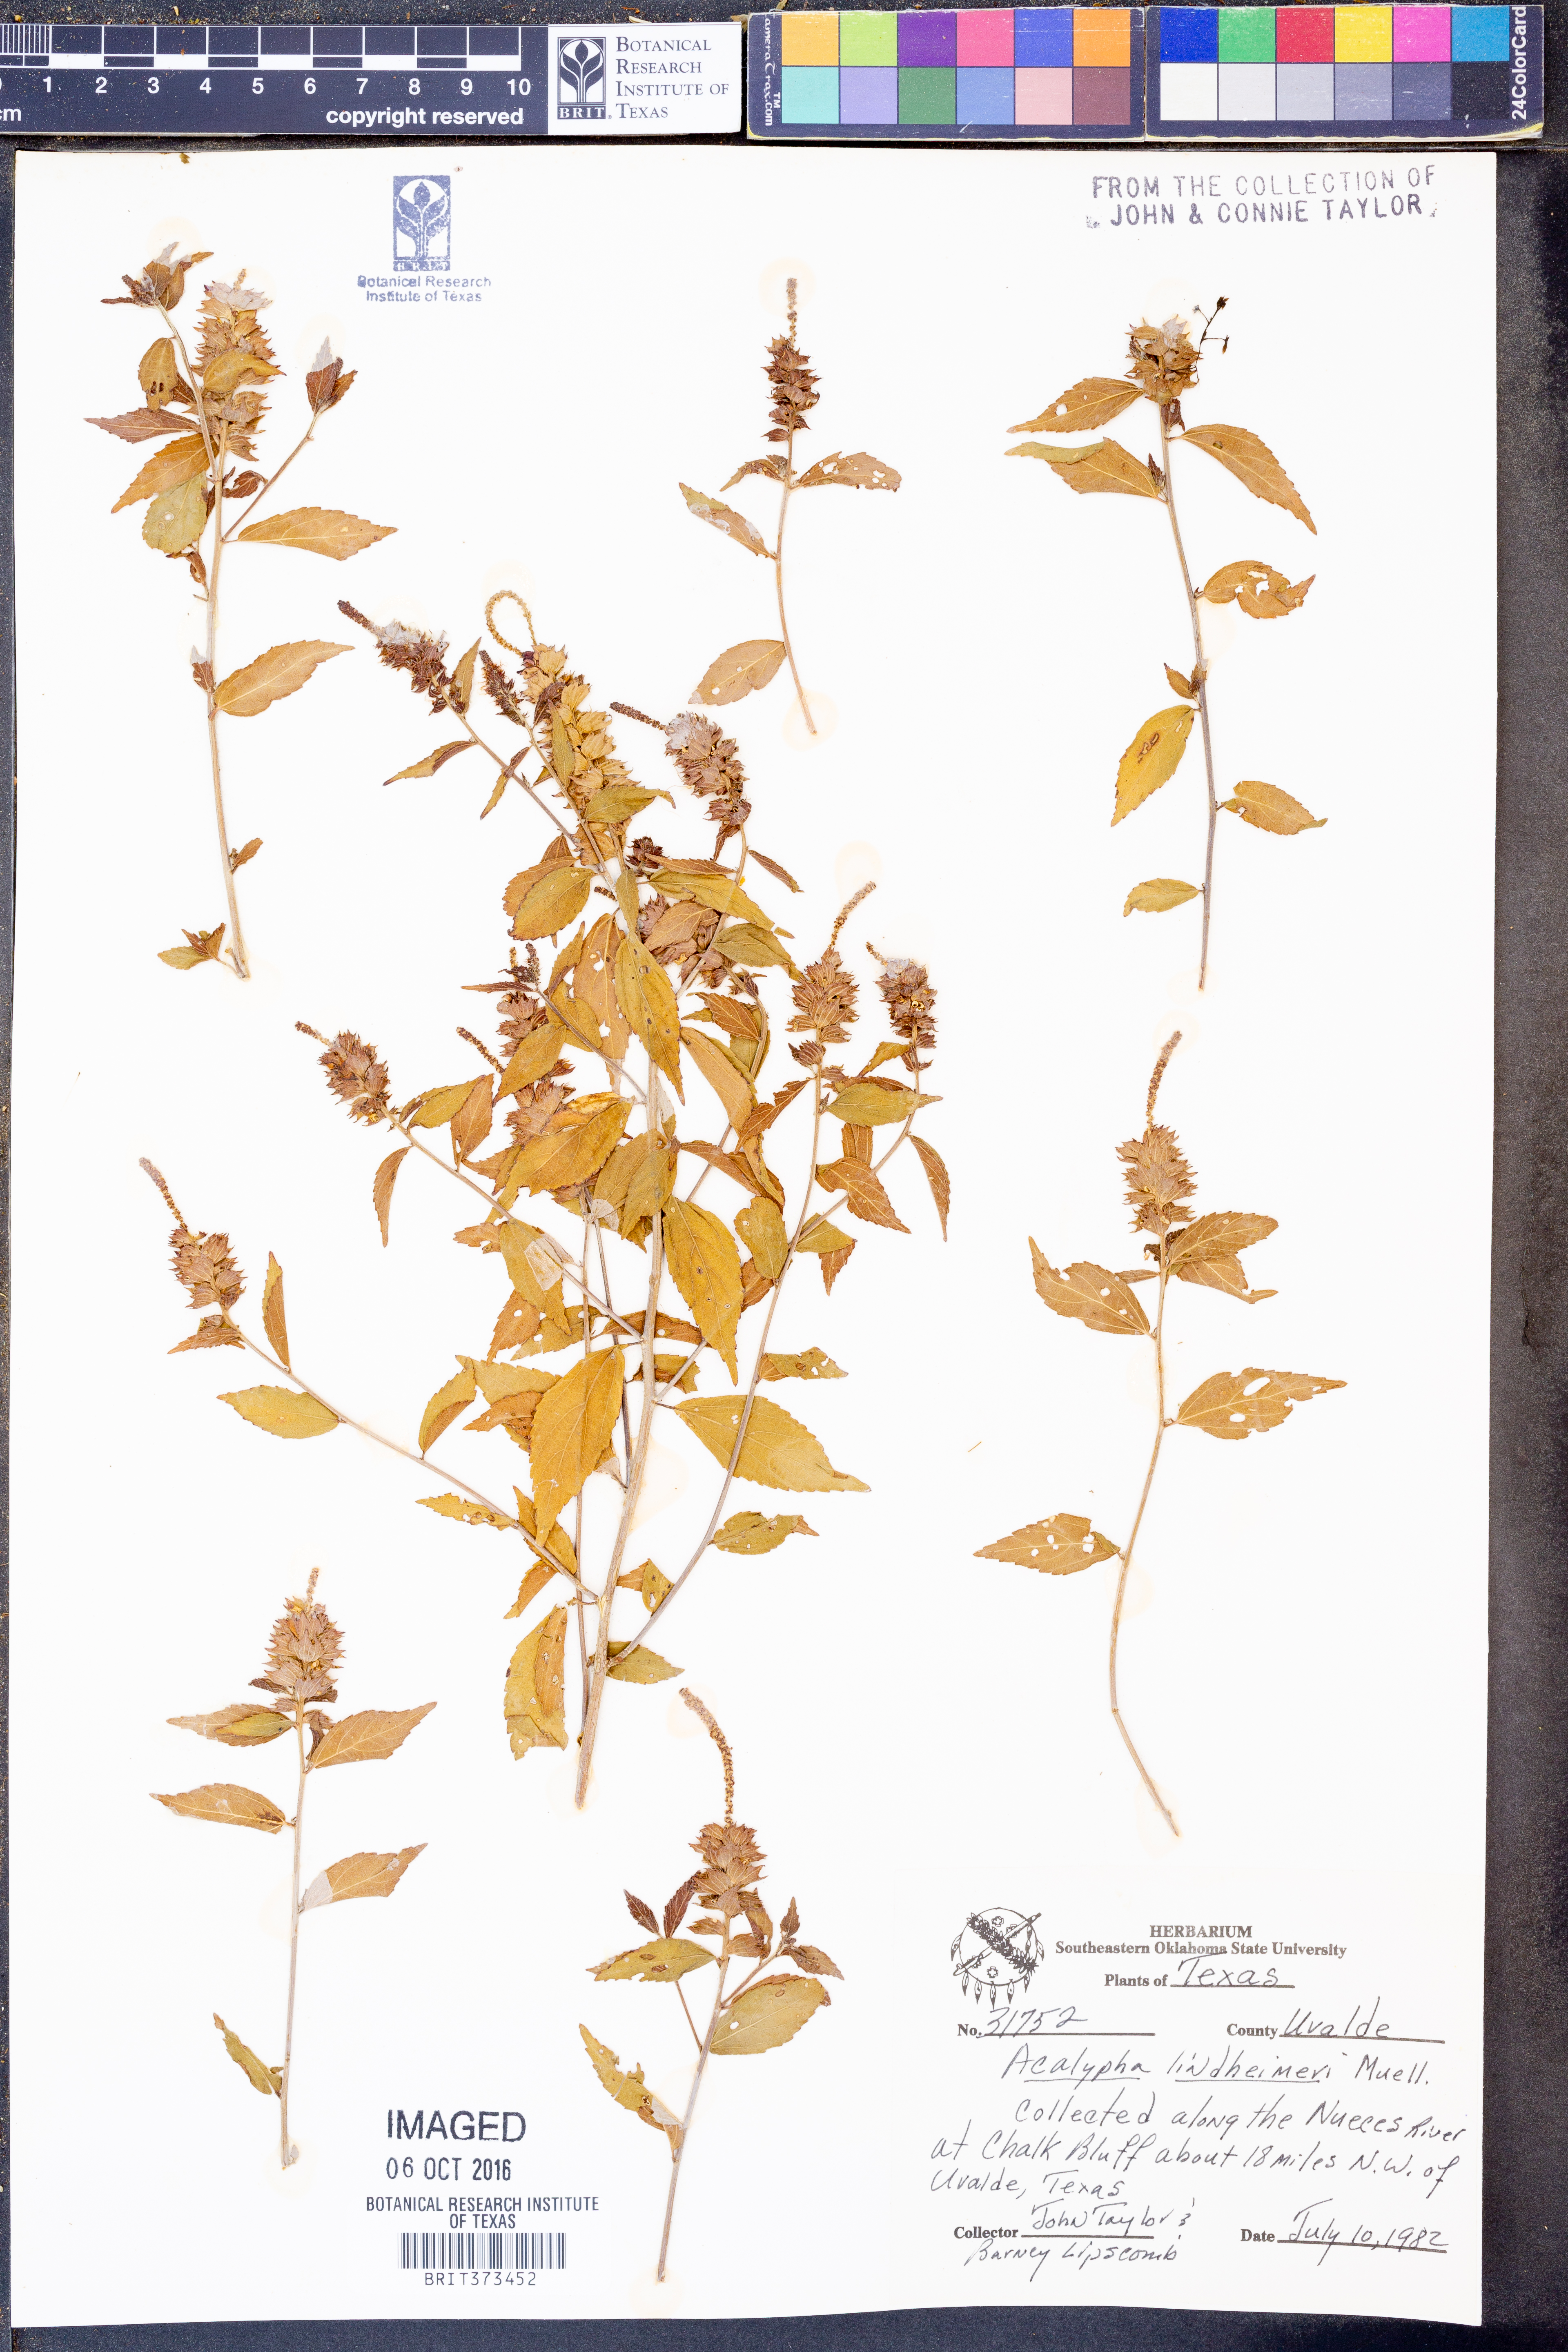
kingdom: Plantae
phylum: Tracheophyta
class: Magnoliopsida
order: Malpighiales
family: Euphorbiaceae
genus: Acalypha
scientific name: Acalypha phleoides
